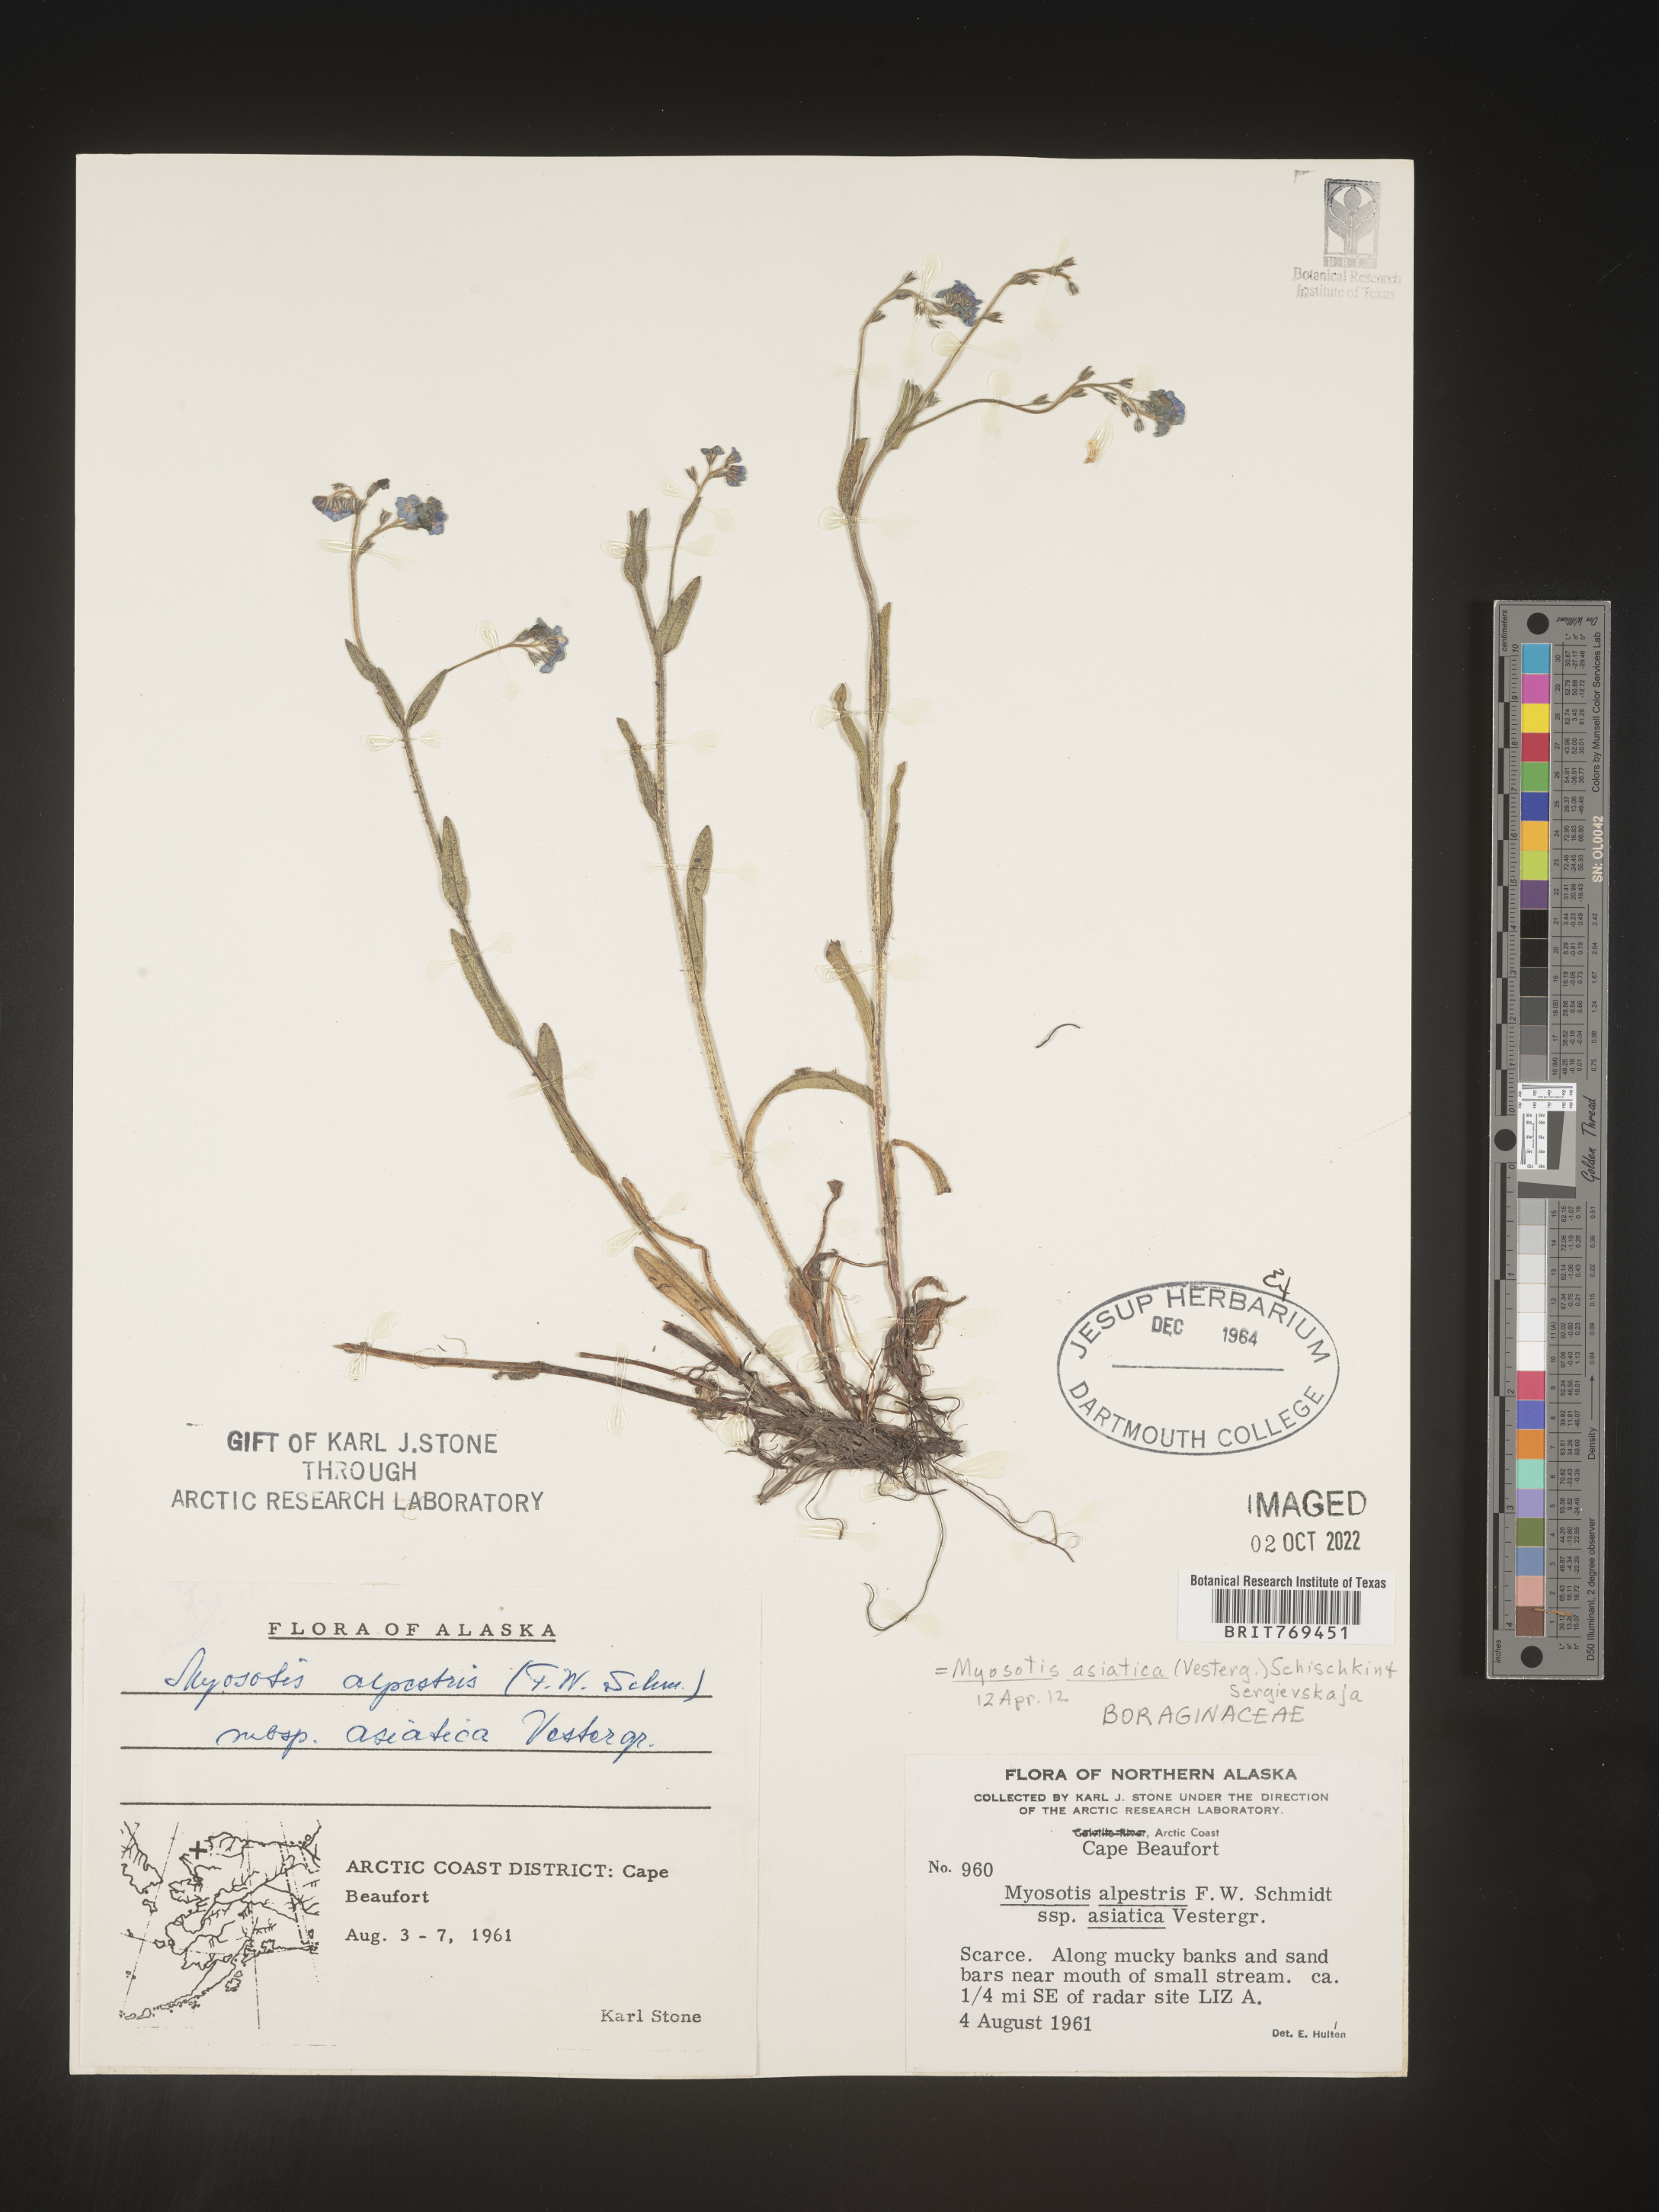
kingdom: Plantae
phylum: Tracheophyta
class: Magnoliopsida
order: Boraginales
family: Boraginaceae
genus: Myosotis
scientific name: Myosotis
